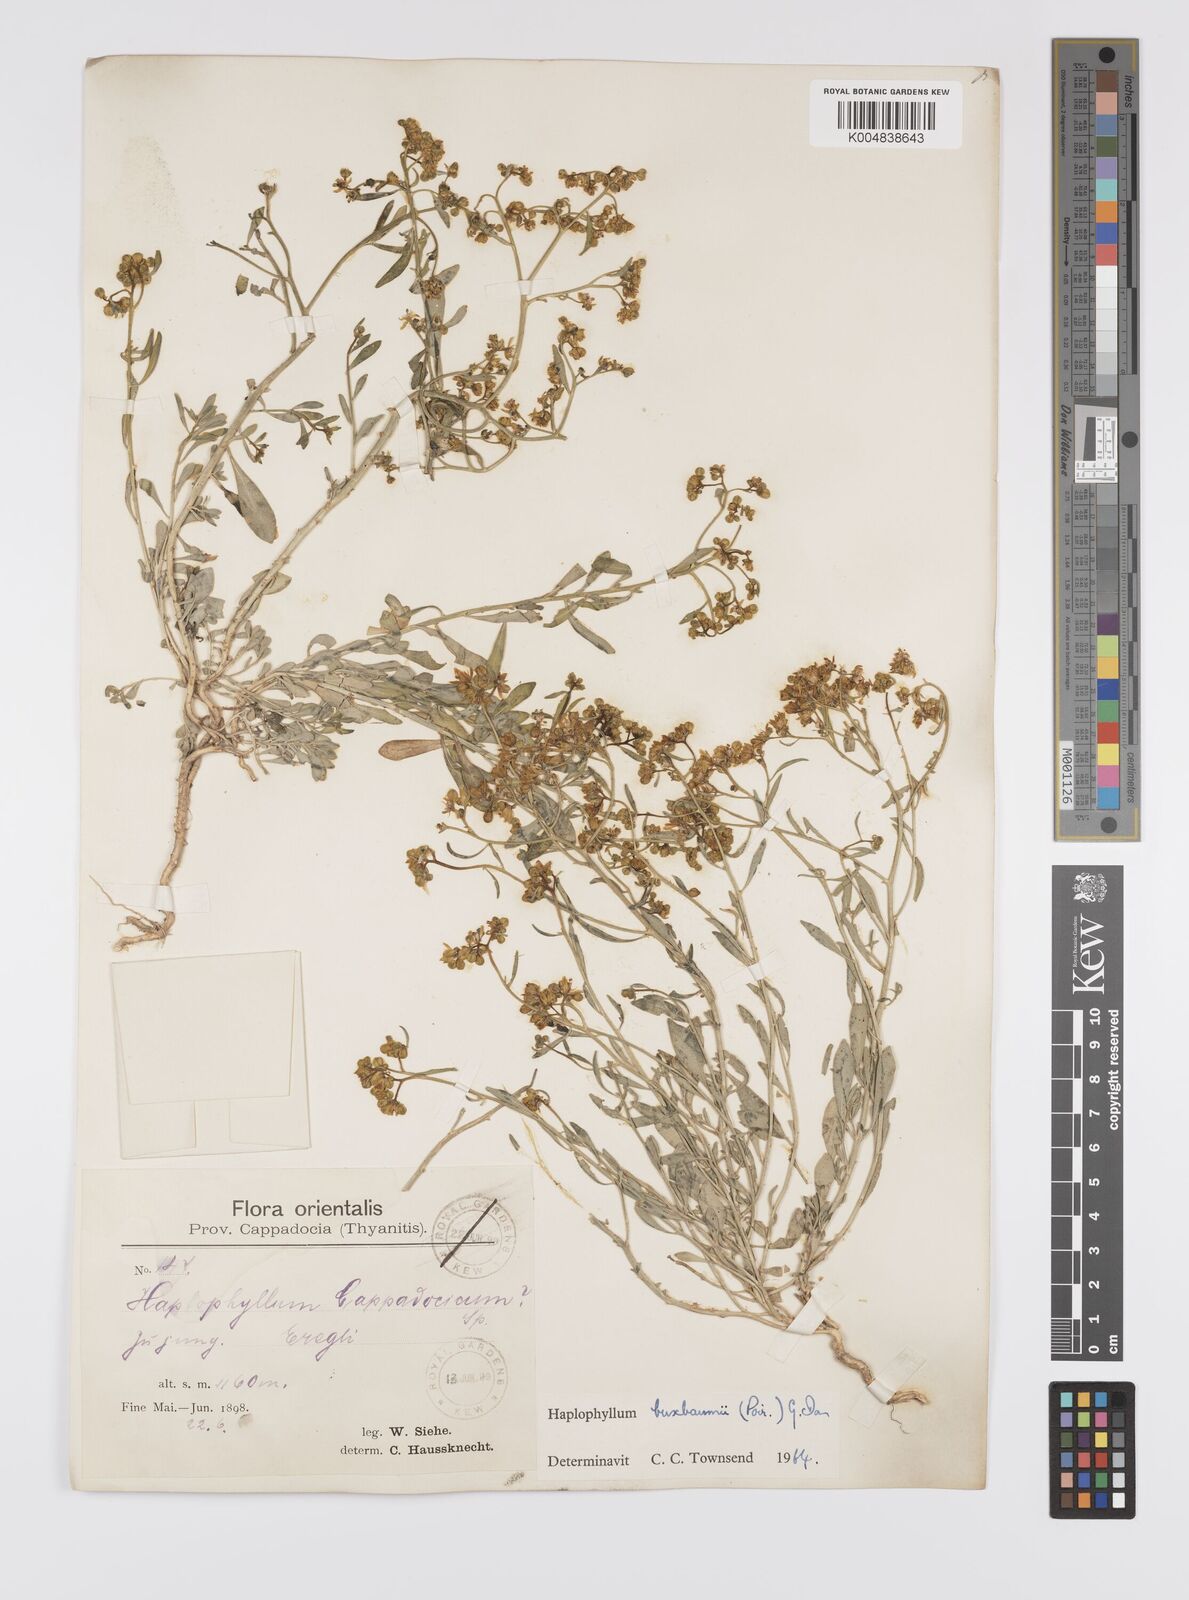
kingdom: Plantae
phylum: Tracheophyta
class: Magnoliopsida
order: Sapindales
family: Rutaceae
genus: Haplophyllum
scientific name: Haplophyllum
